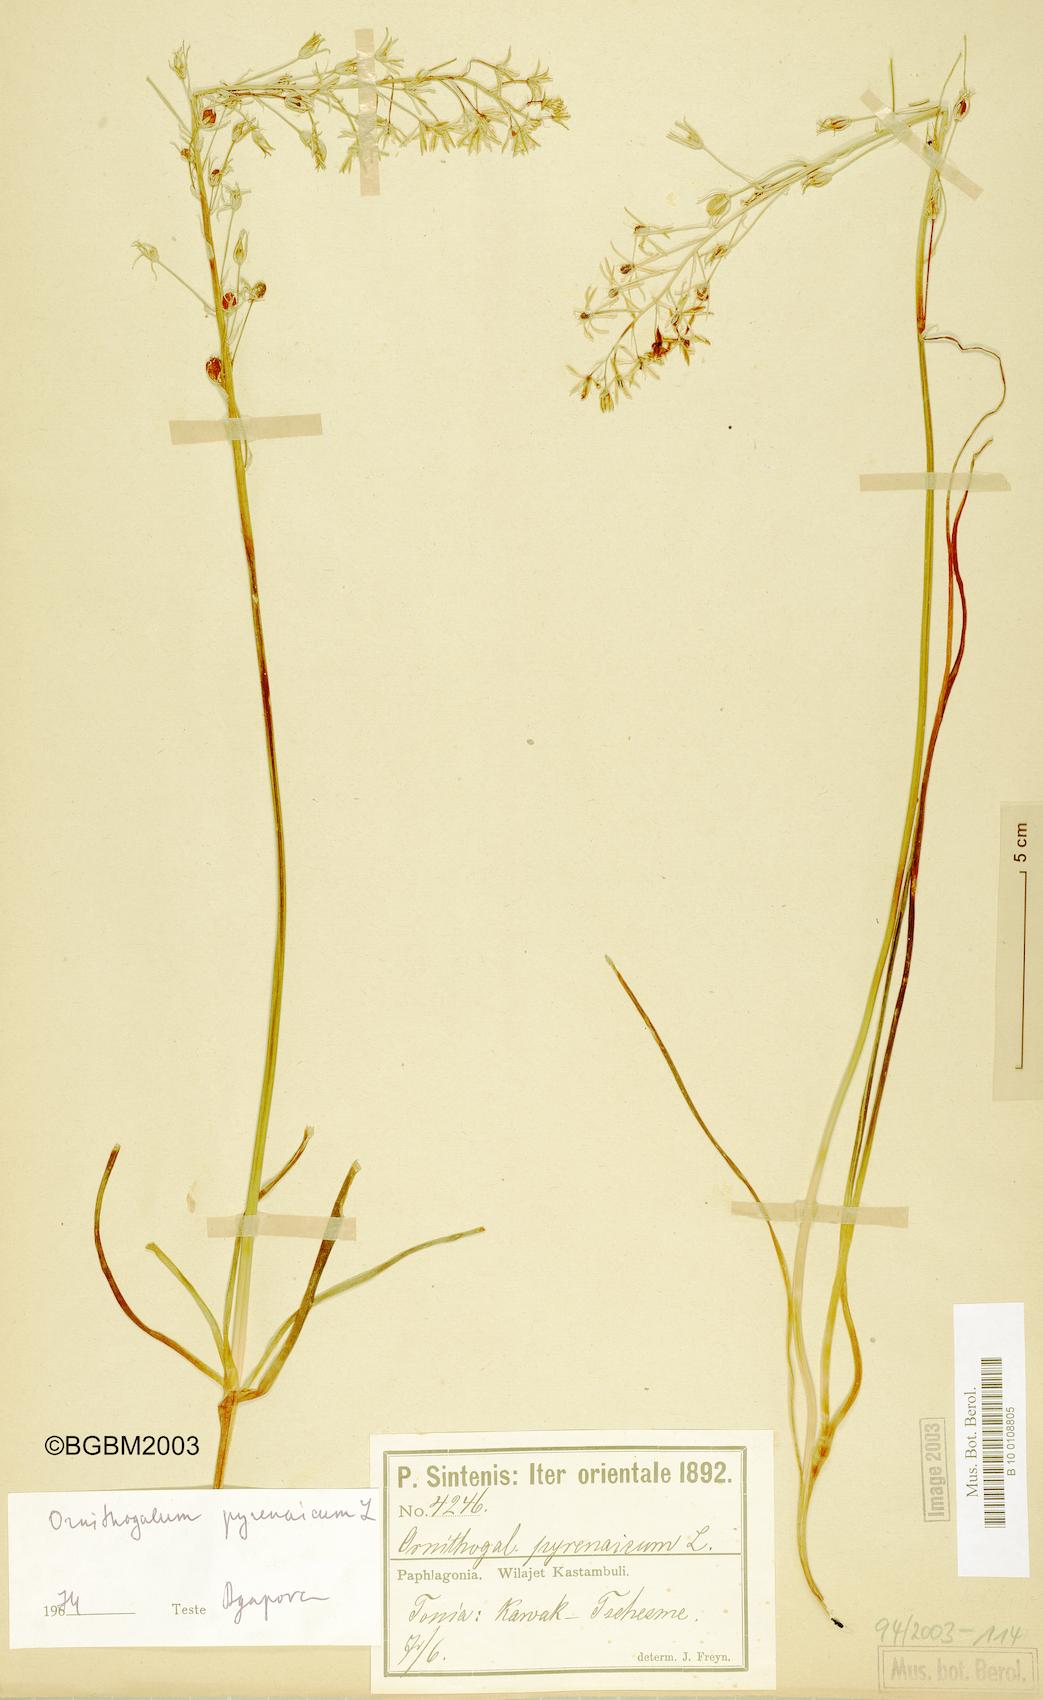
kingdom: Plantae
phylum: Tracheophyta
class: Liliopsida
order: Asparagales
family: Asparagaceae
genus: Ornithogalum
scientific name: Ornithogalum pyrenaicum
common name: Spiked star-of-bethlehem
